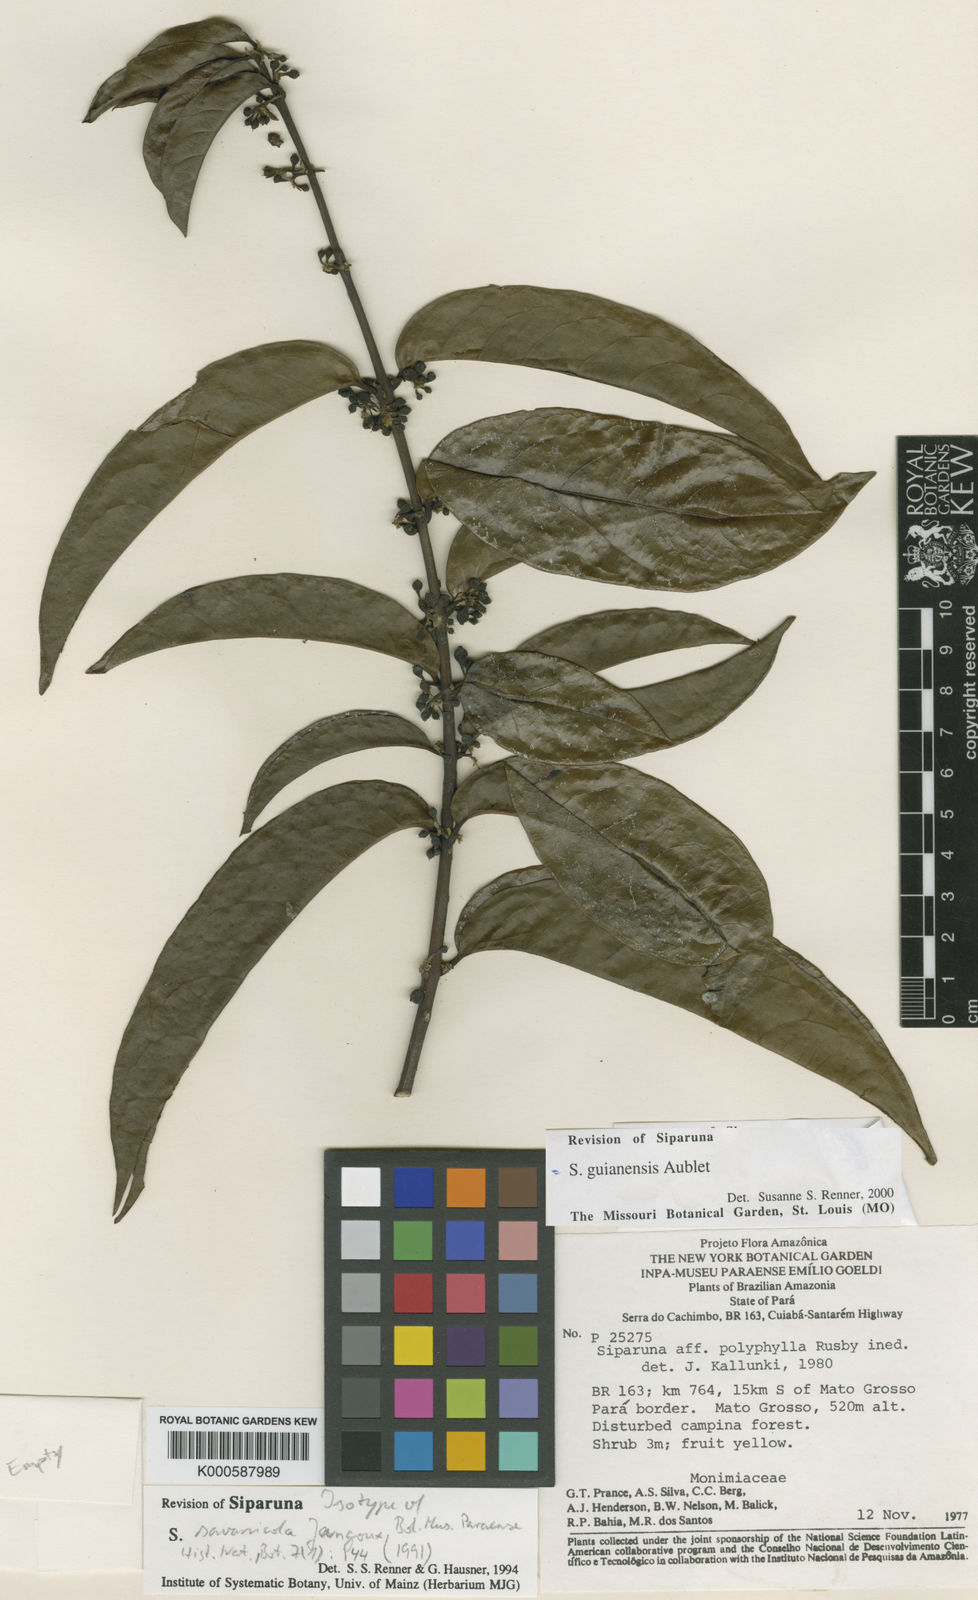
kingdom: Plantae
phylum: Tracheophyta
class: Magnoliopsida
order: Laurales
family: Siparunaceae
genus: Siparuna
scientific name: Siparuna guianensis
